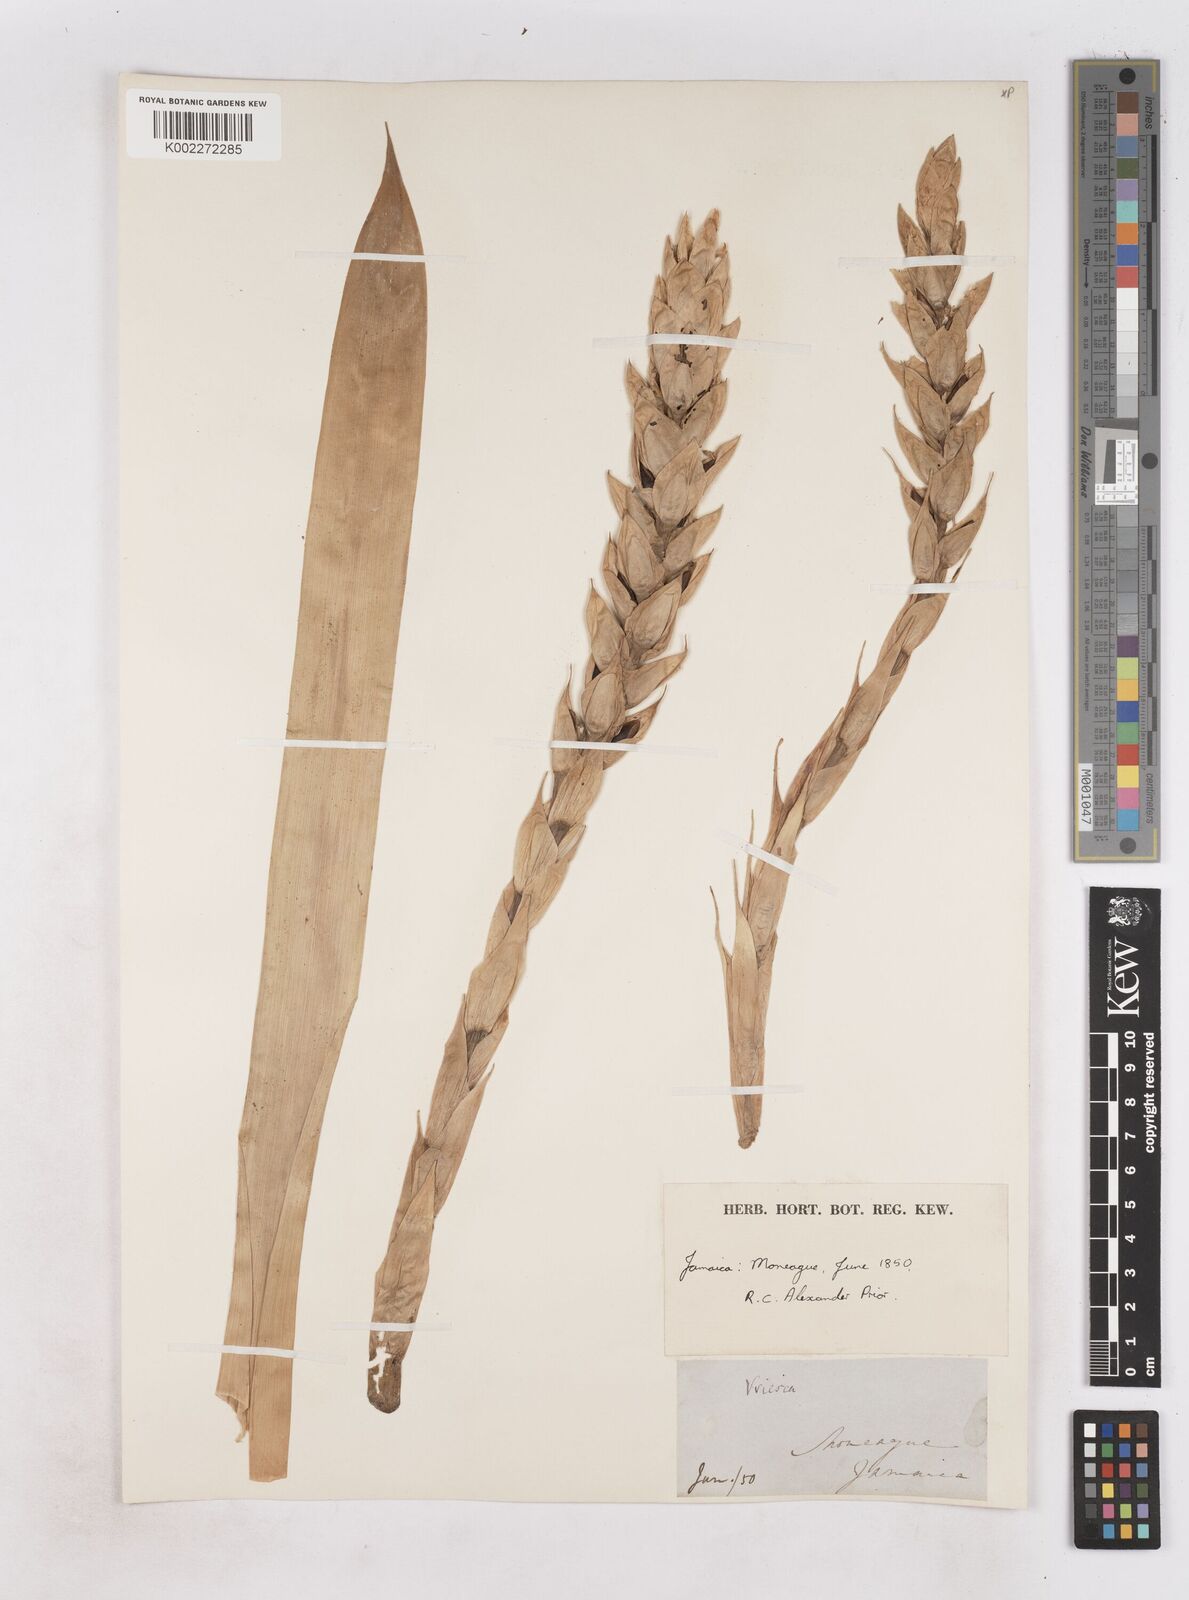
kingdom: Plantae
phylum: Tracheophyta
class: Liliopsida
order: Poales
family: Bromeliaceae
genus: Guzmania
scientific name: Guzmania monostachia
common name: West indian tufted airplant
